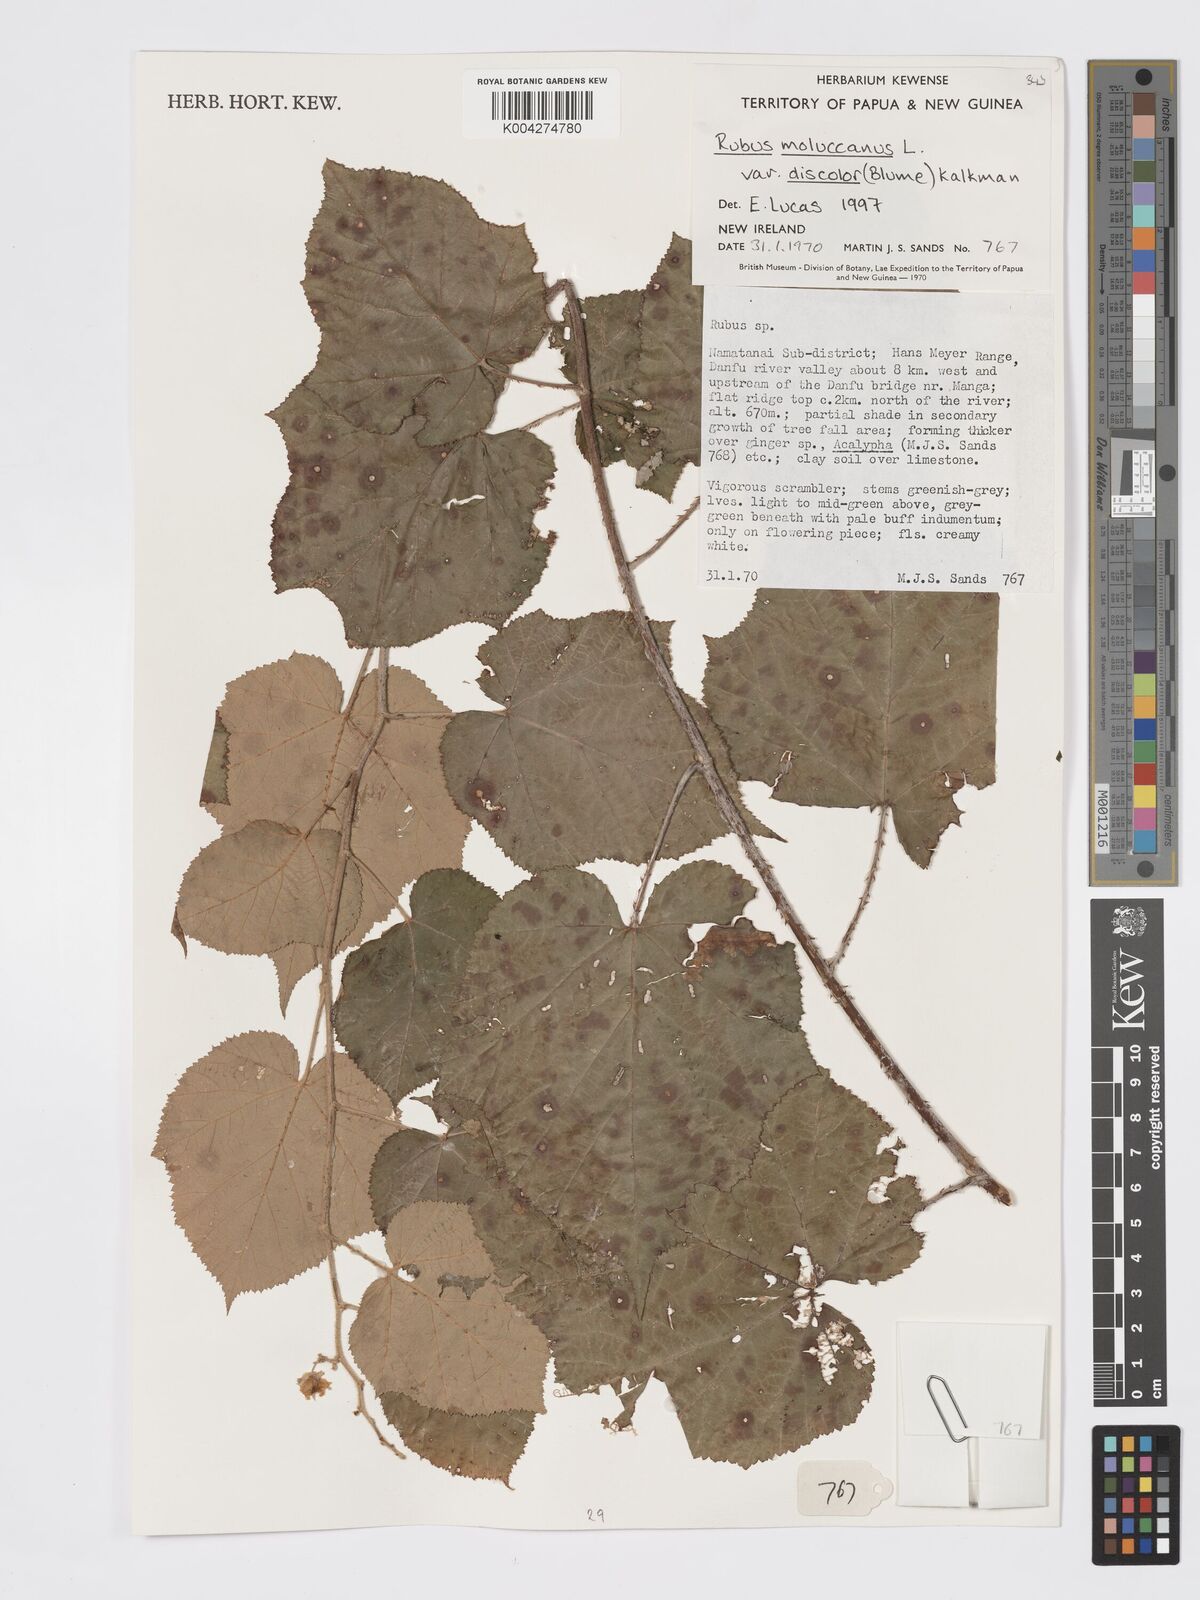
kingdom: Plantae
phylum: Tracheophyta
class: Magnoliopsida
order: Rosales
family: Rosaceae
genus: Rubus
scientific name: Rubus moluccanus
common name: Wild raspberry
